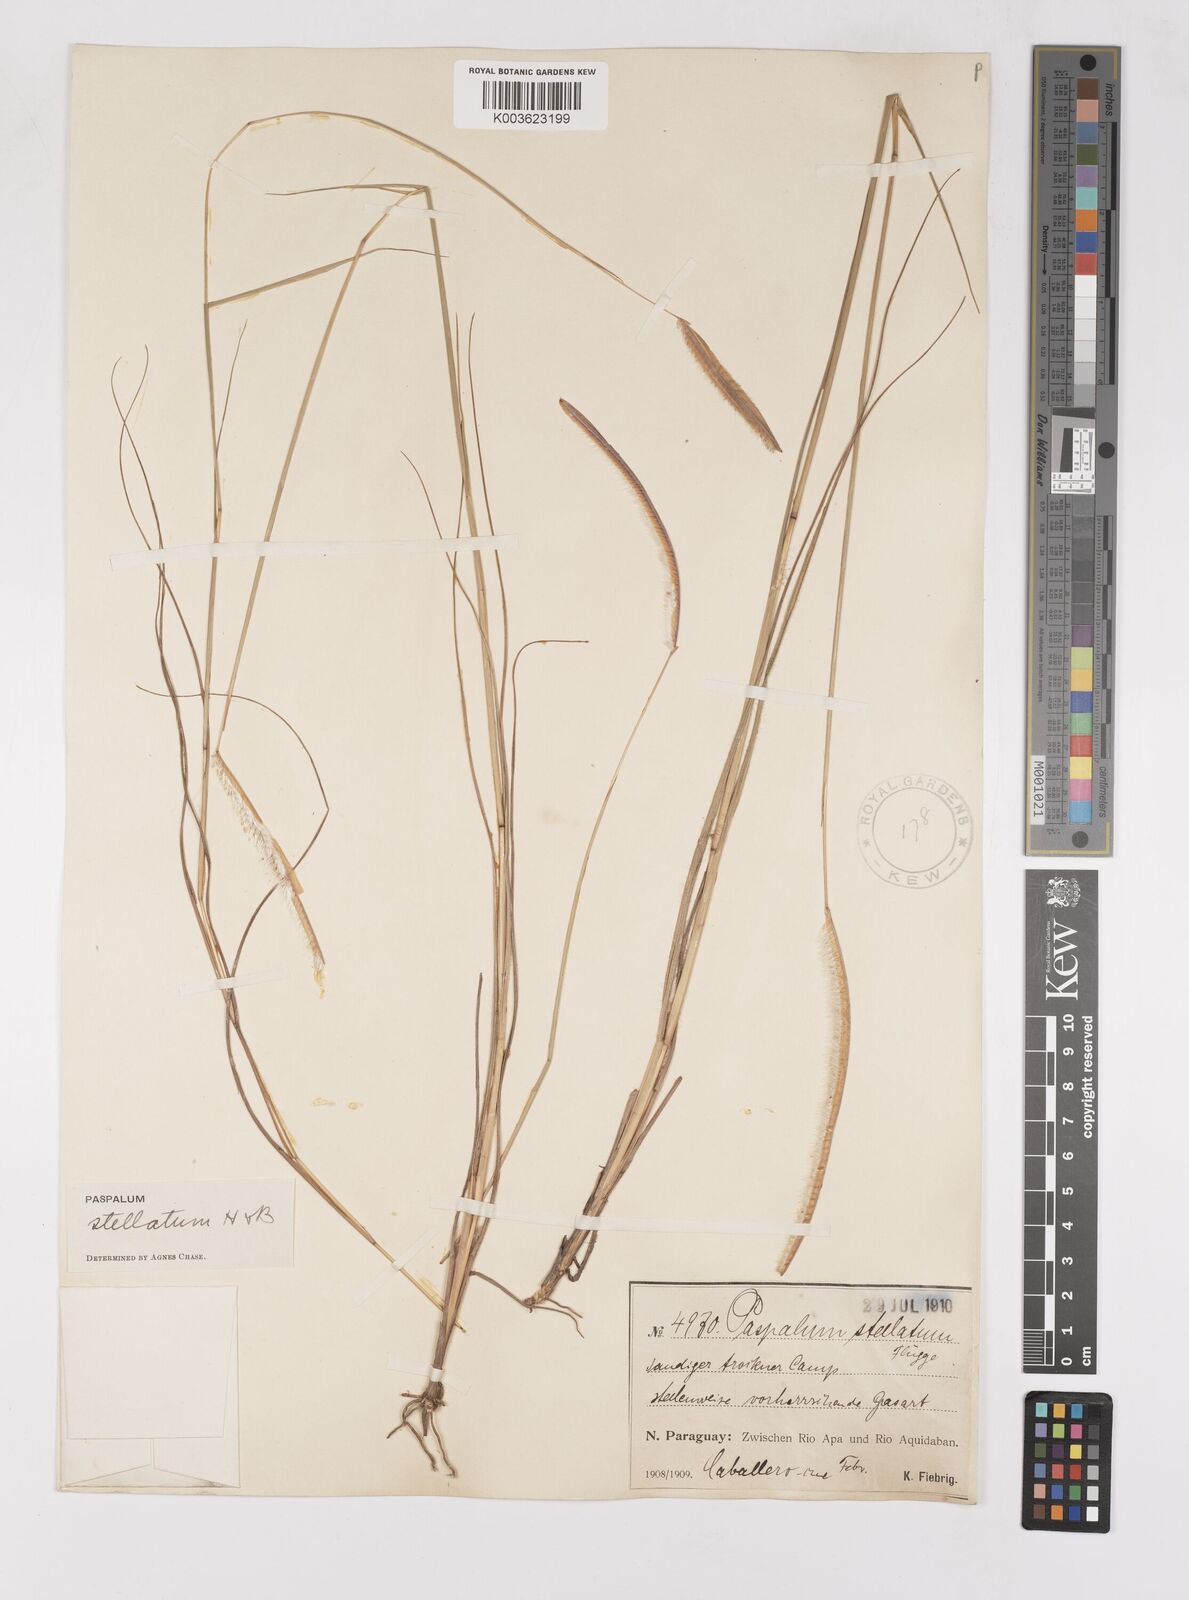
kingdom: Plantae
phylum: Tracheophyta
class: Liliopsida
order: Poales
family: Poaceae
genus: Paspalum
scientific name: Paspalum stellatum
